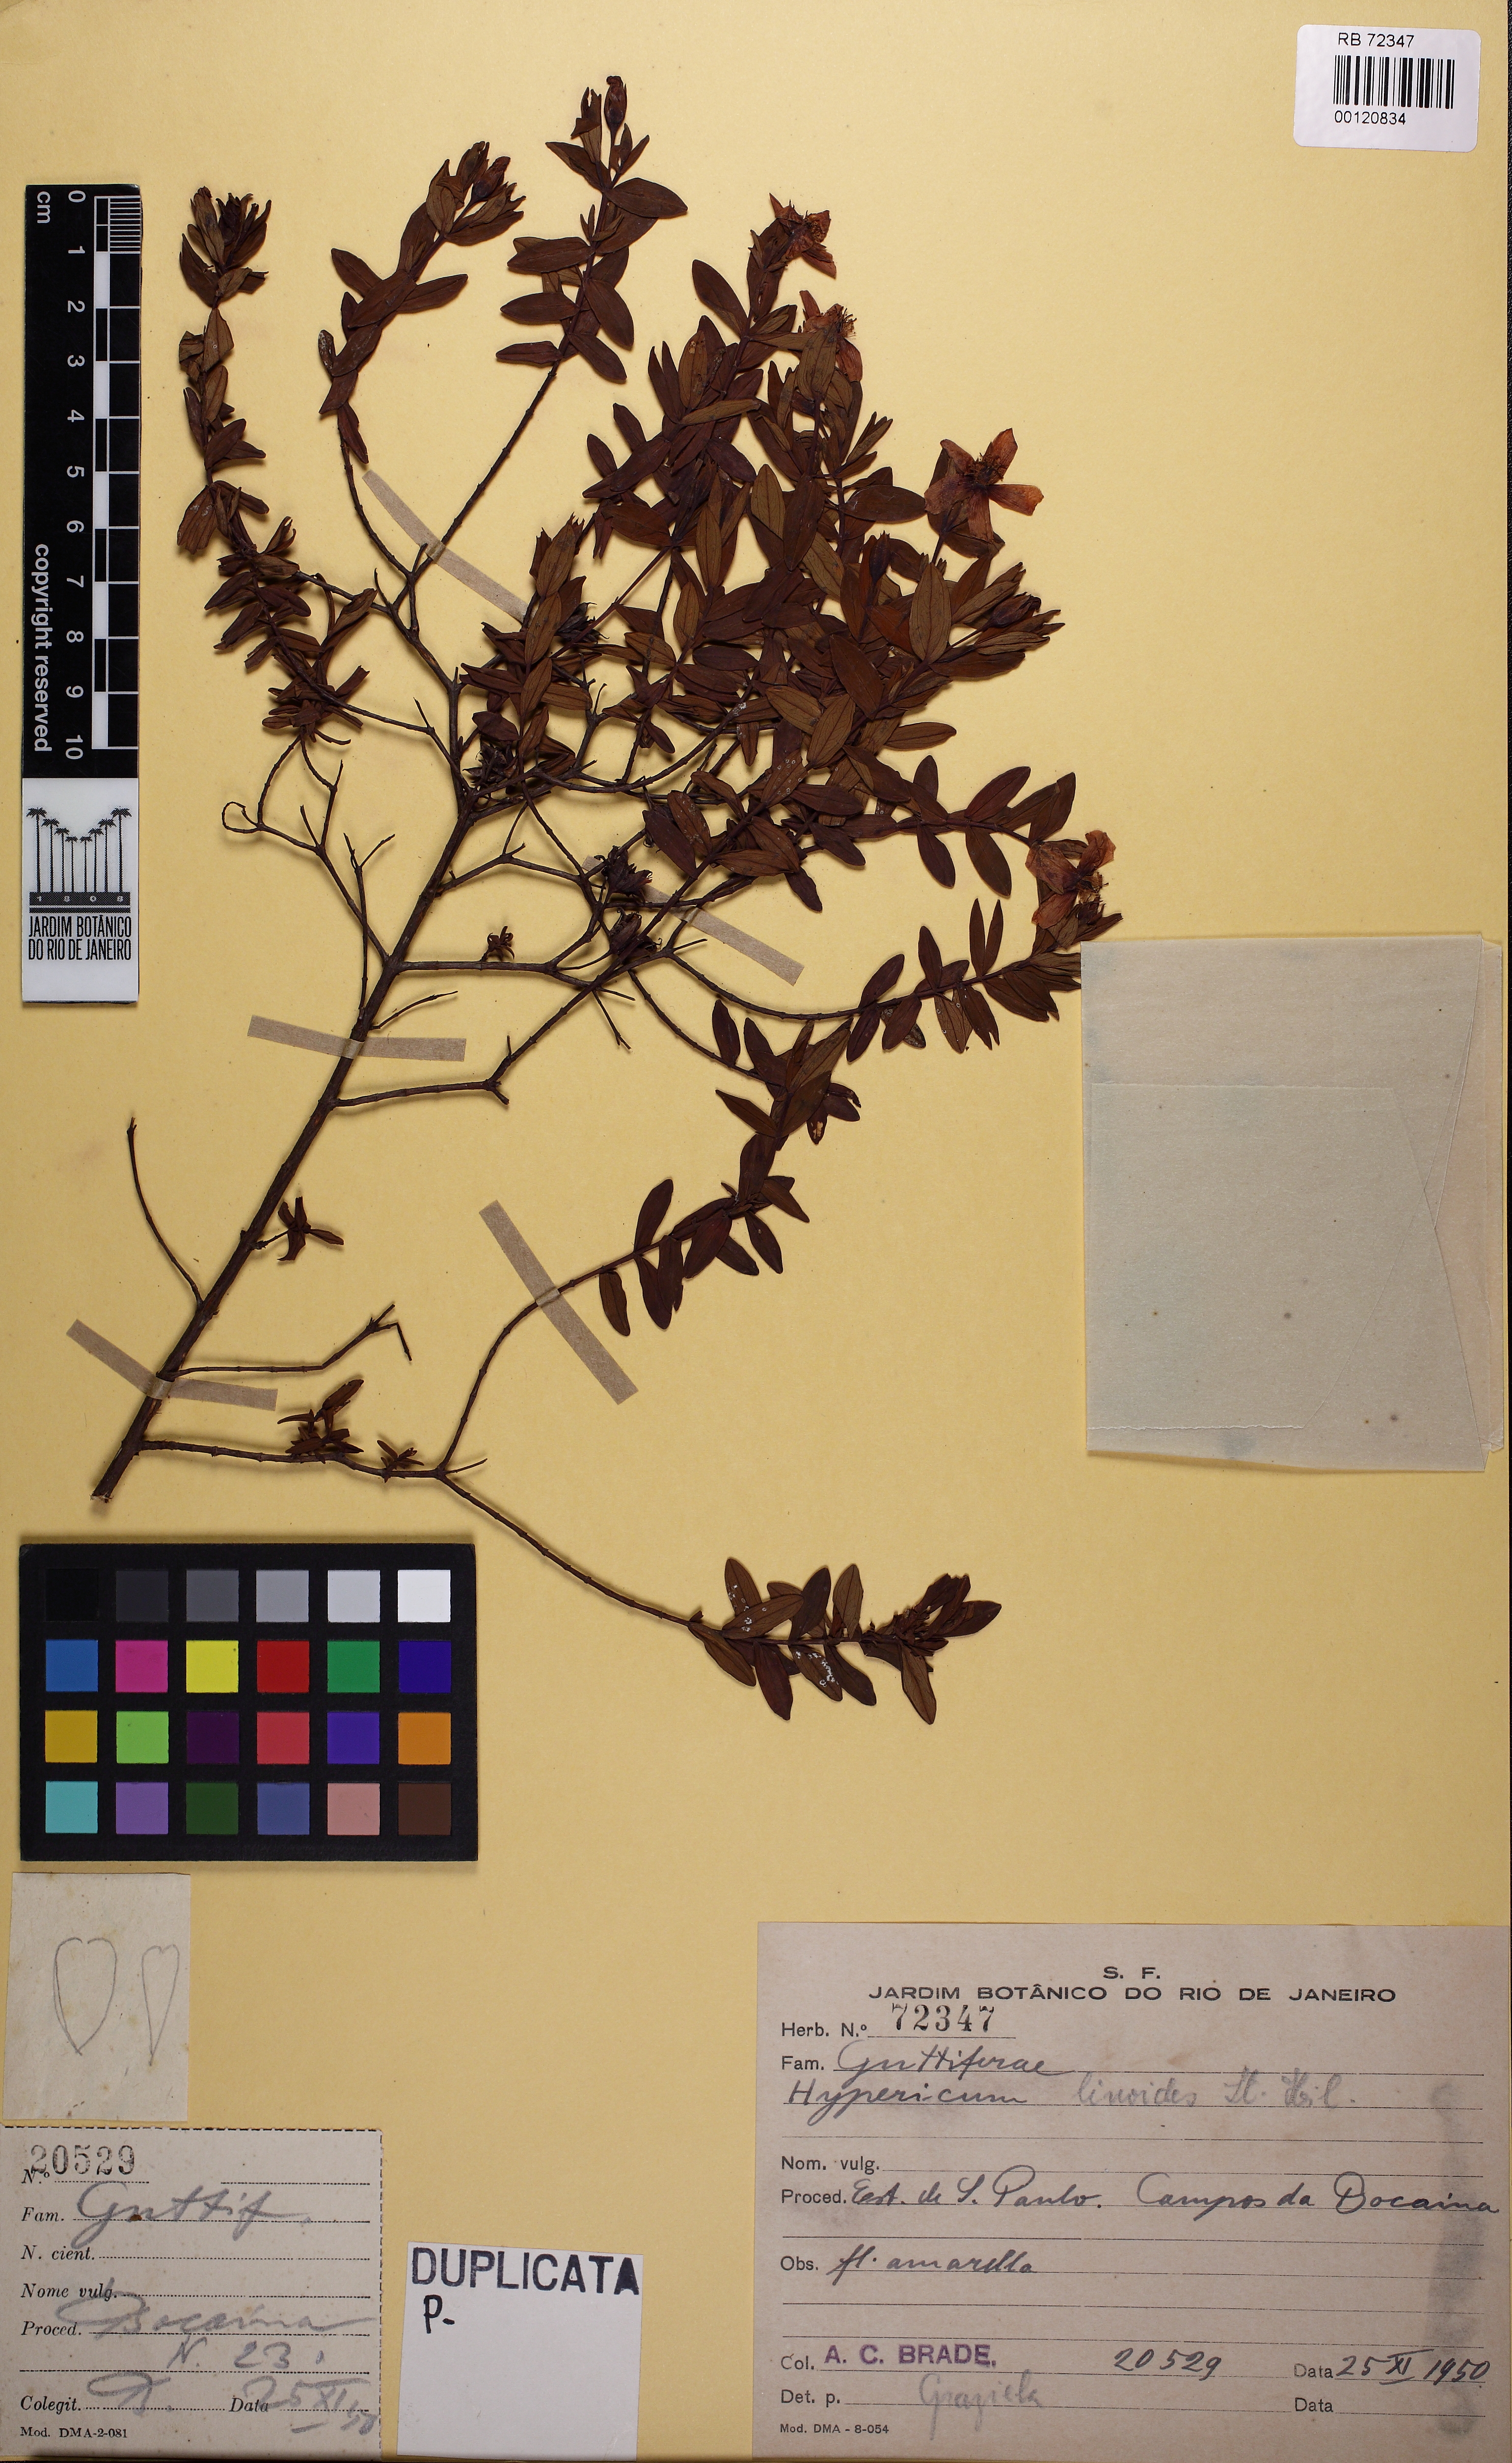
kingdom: Plantae
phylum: Tracheophyta
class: Magnoliopsida
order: Malpighiales
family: Hypericaceae
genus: Hypericum
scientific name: Hypericum linoides
